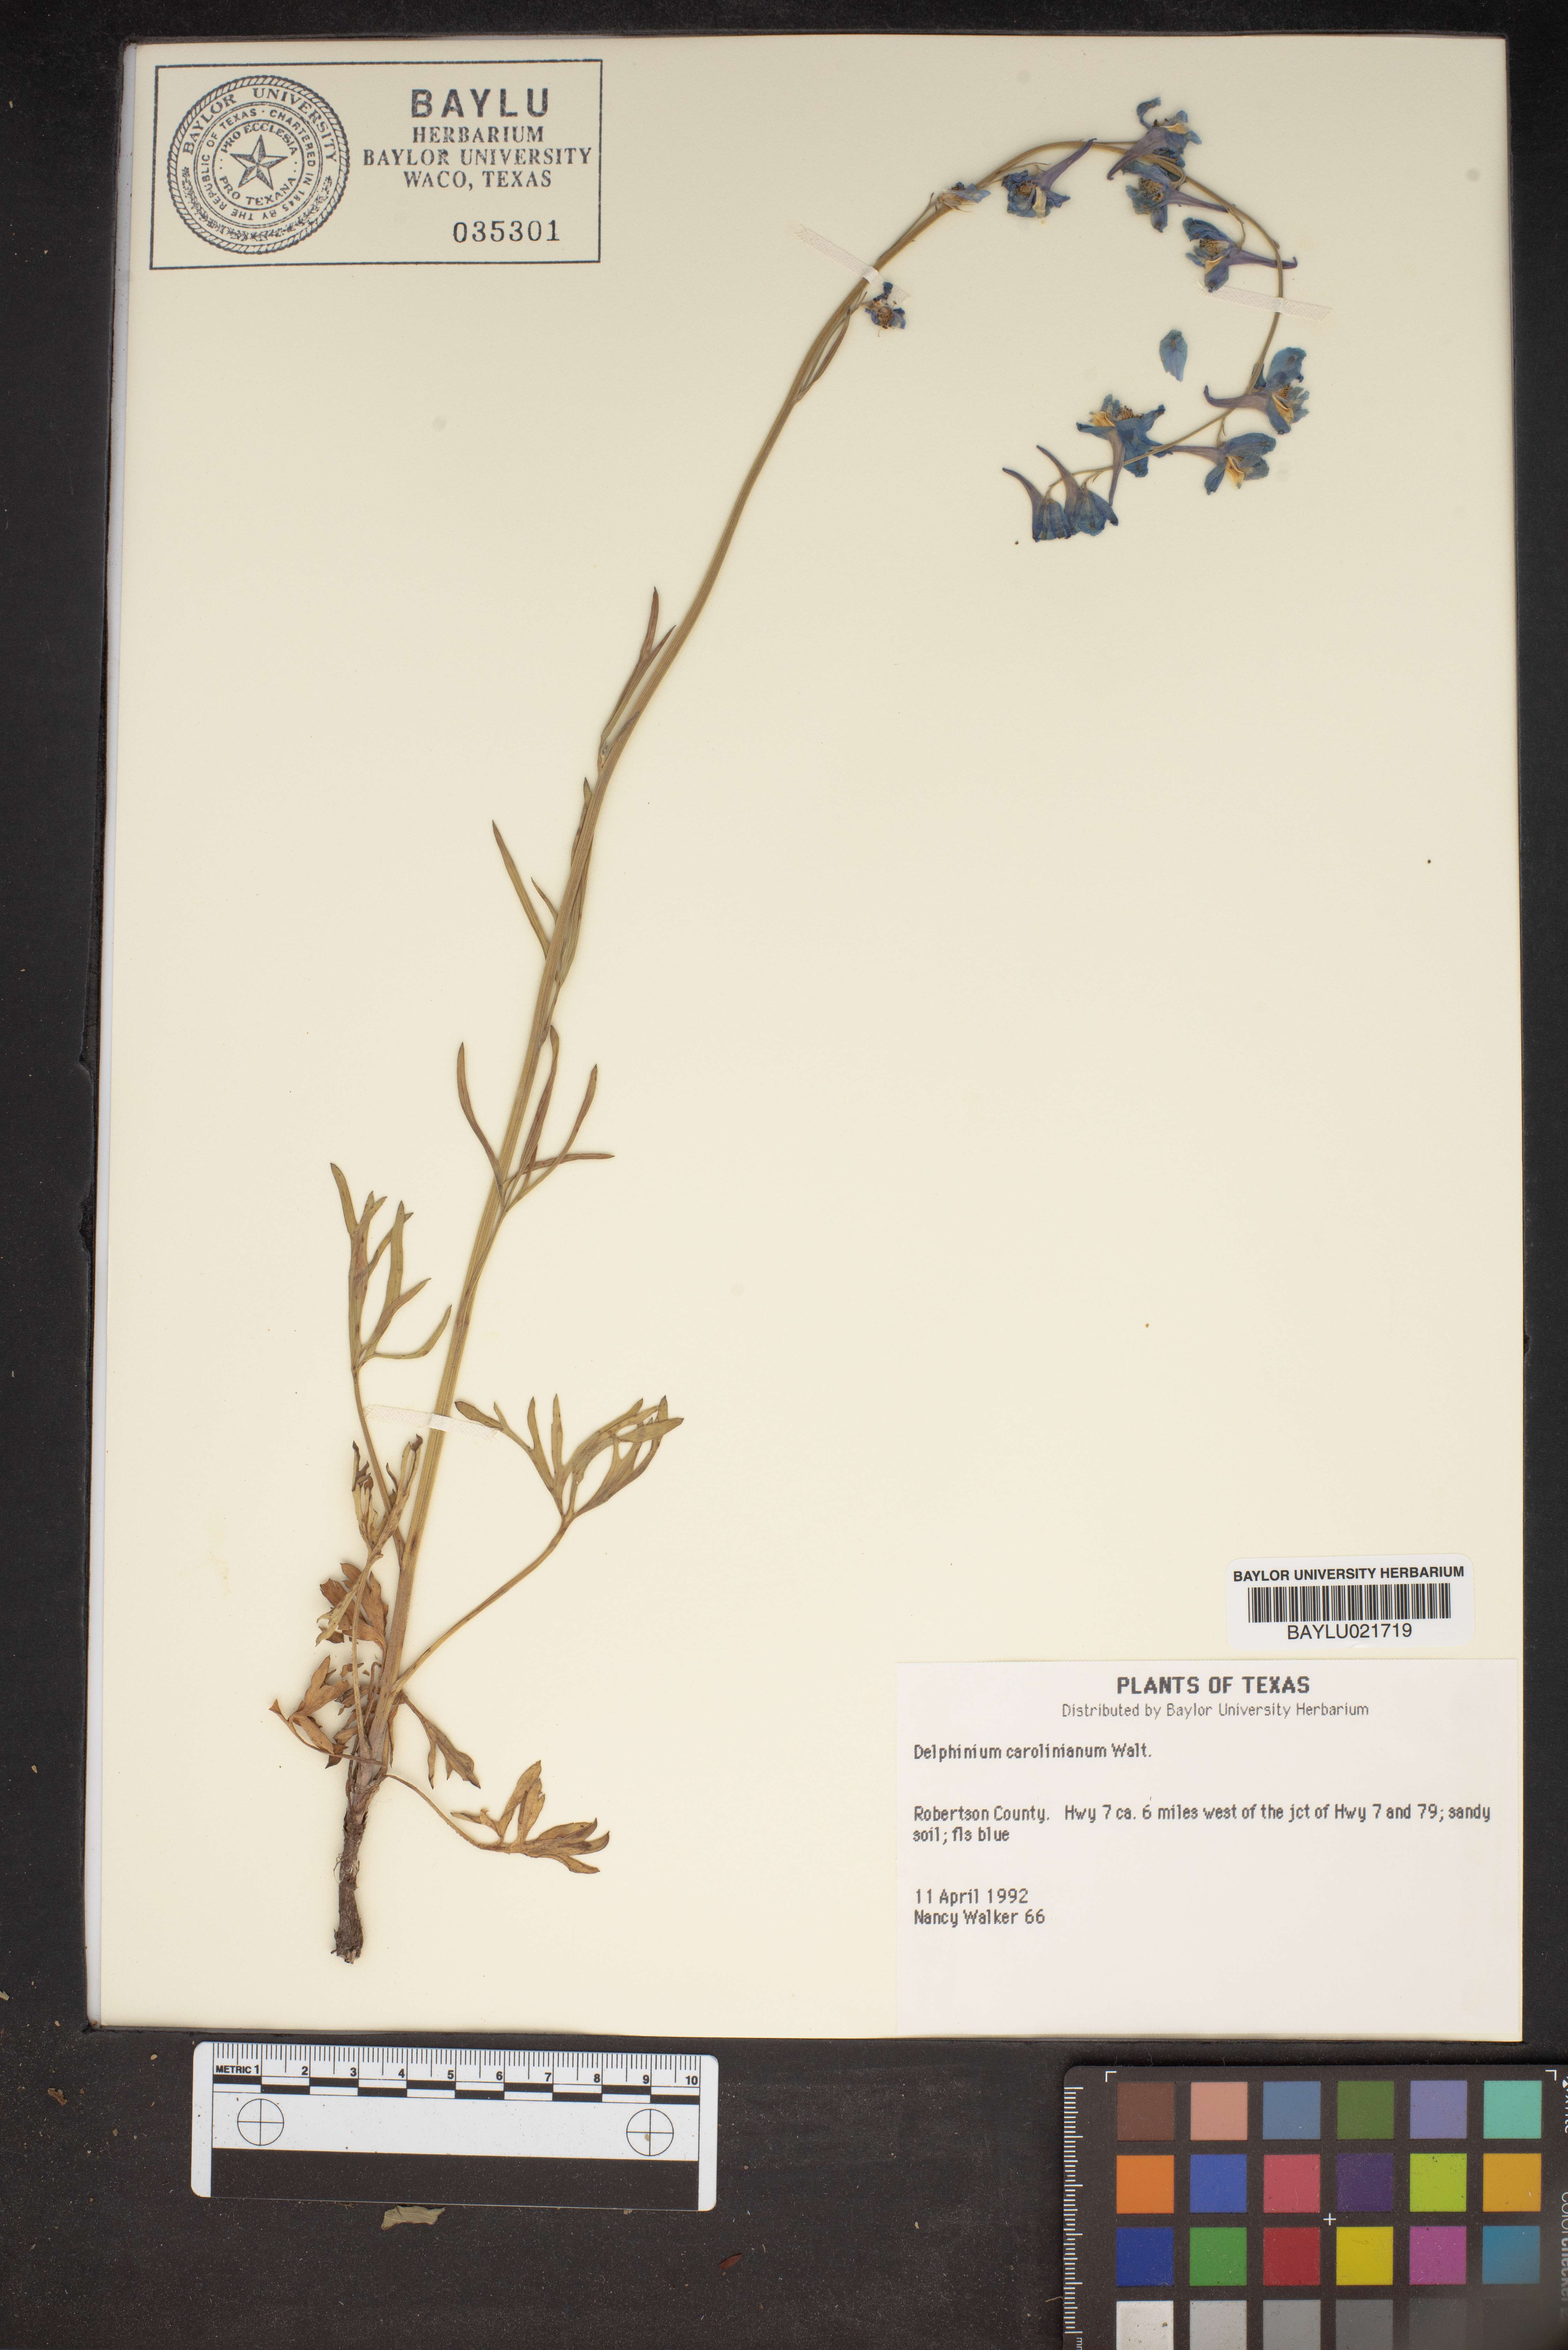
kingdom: Plantae
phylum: Tracheophyta
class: Magnoliopsida
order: Ranunculales
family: Ranunculaceae
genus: Delphinium
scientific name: Delphinium carolinianum
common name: Carolina larkspur
